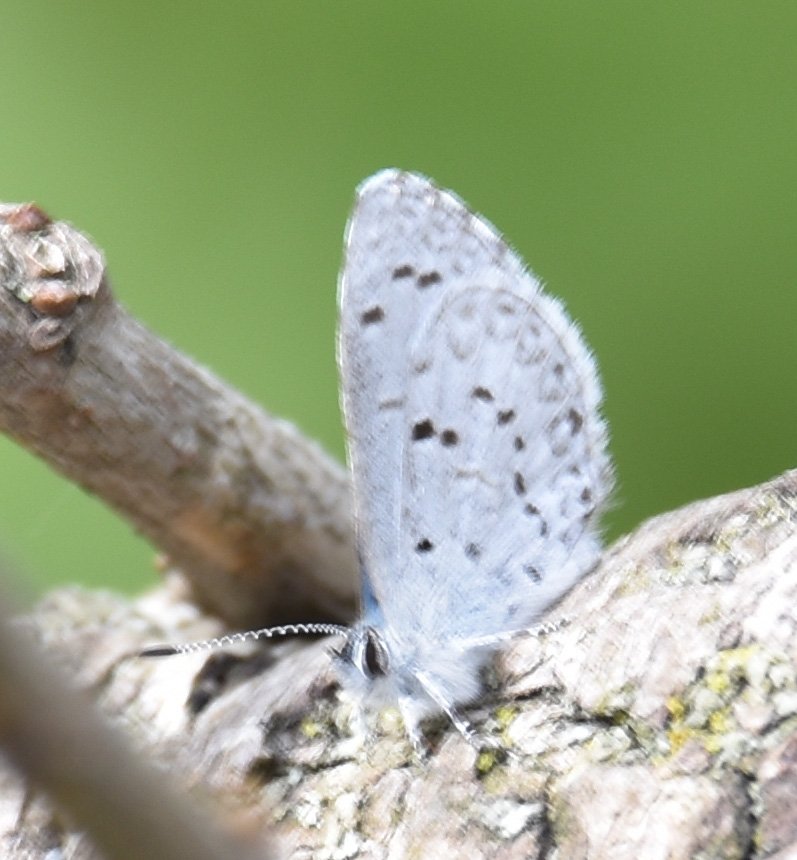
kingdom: Animalia
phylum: Arthropoda
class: Insecta
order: Lepidoptera
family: Lycaenidae
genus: Celastrina
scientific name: Celastrina
